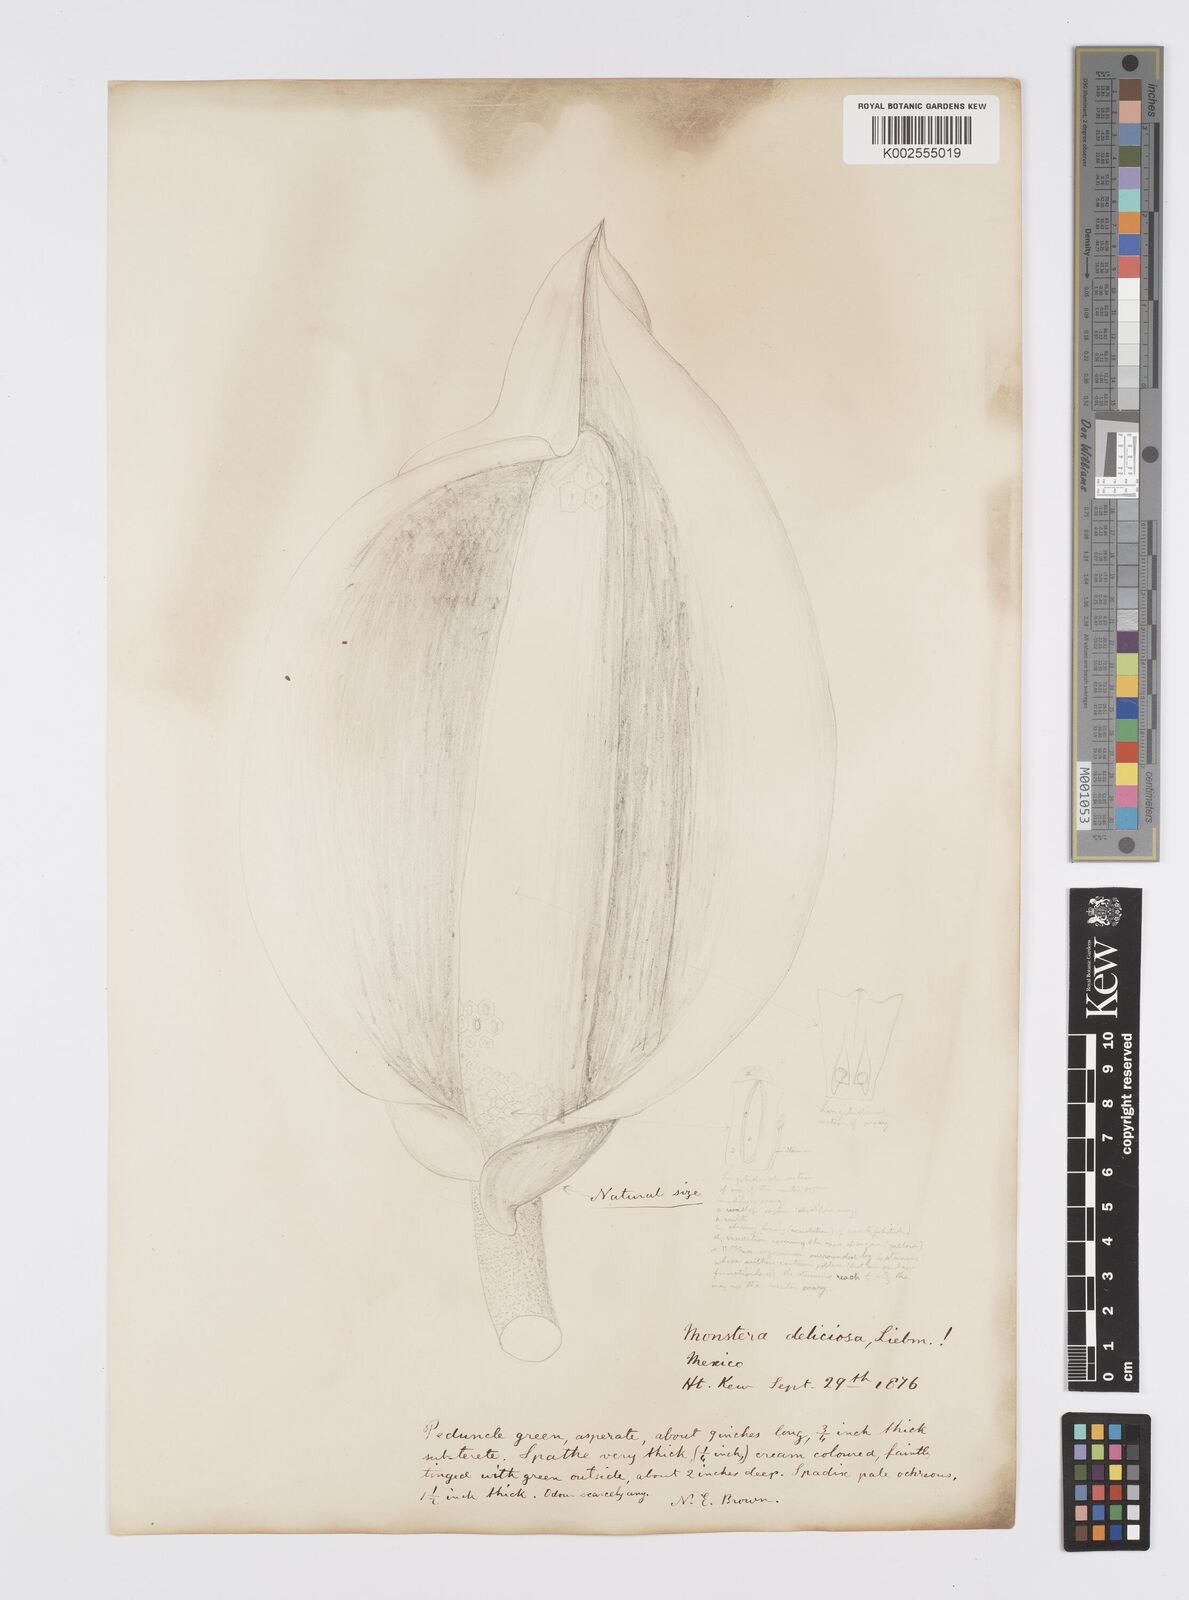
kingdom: Plantae
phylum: Tracheophyta
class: Liliopsida
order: Alismatales
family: Araceae
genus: Monstera
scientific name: Monstera deliciosa
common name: Cut-leaf-philodendron
